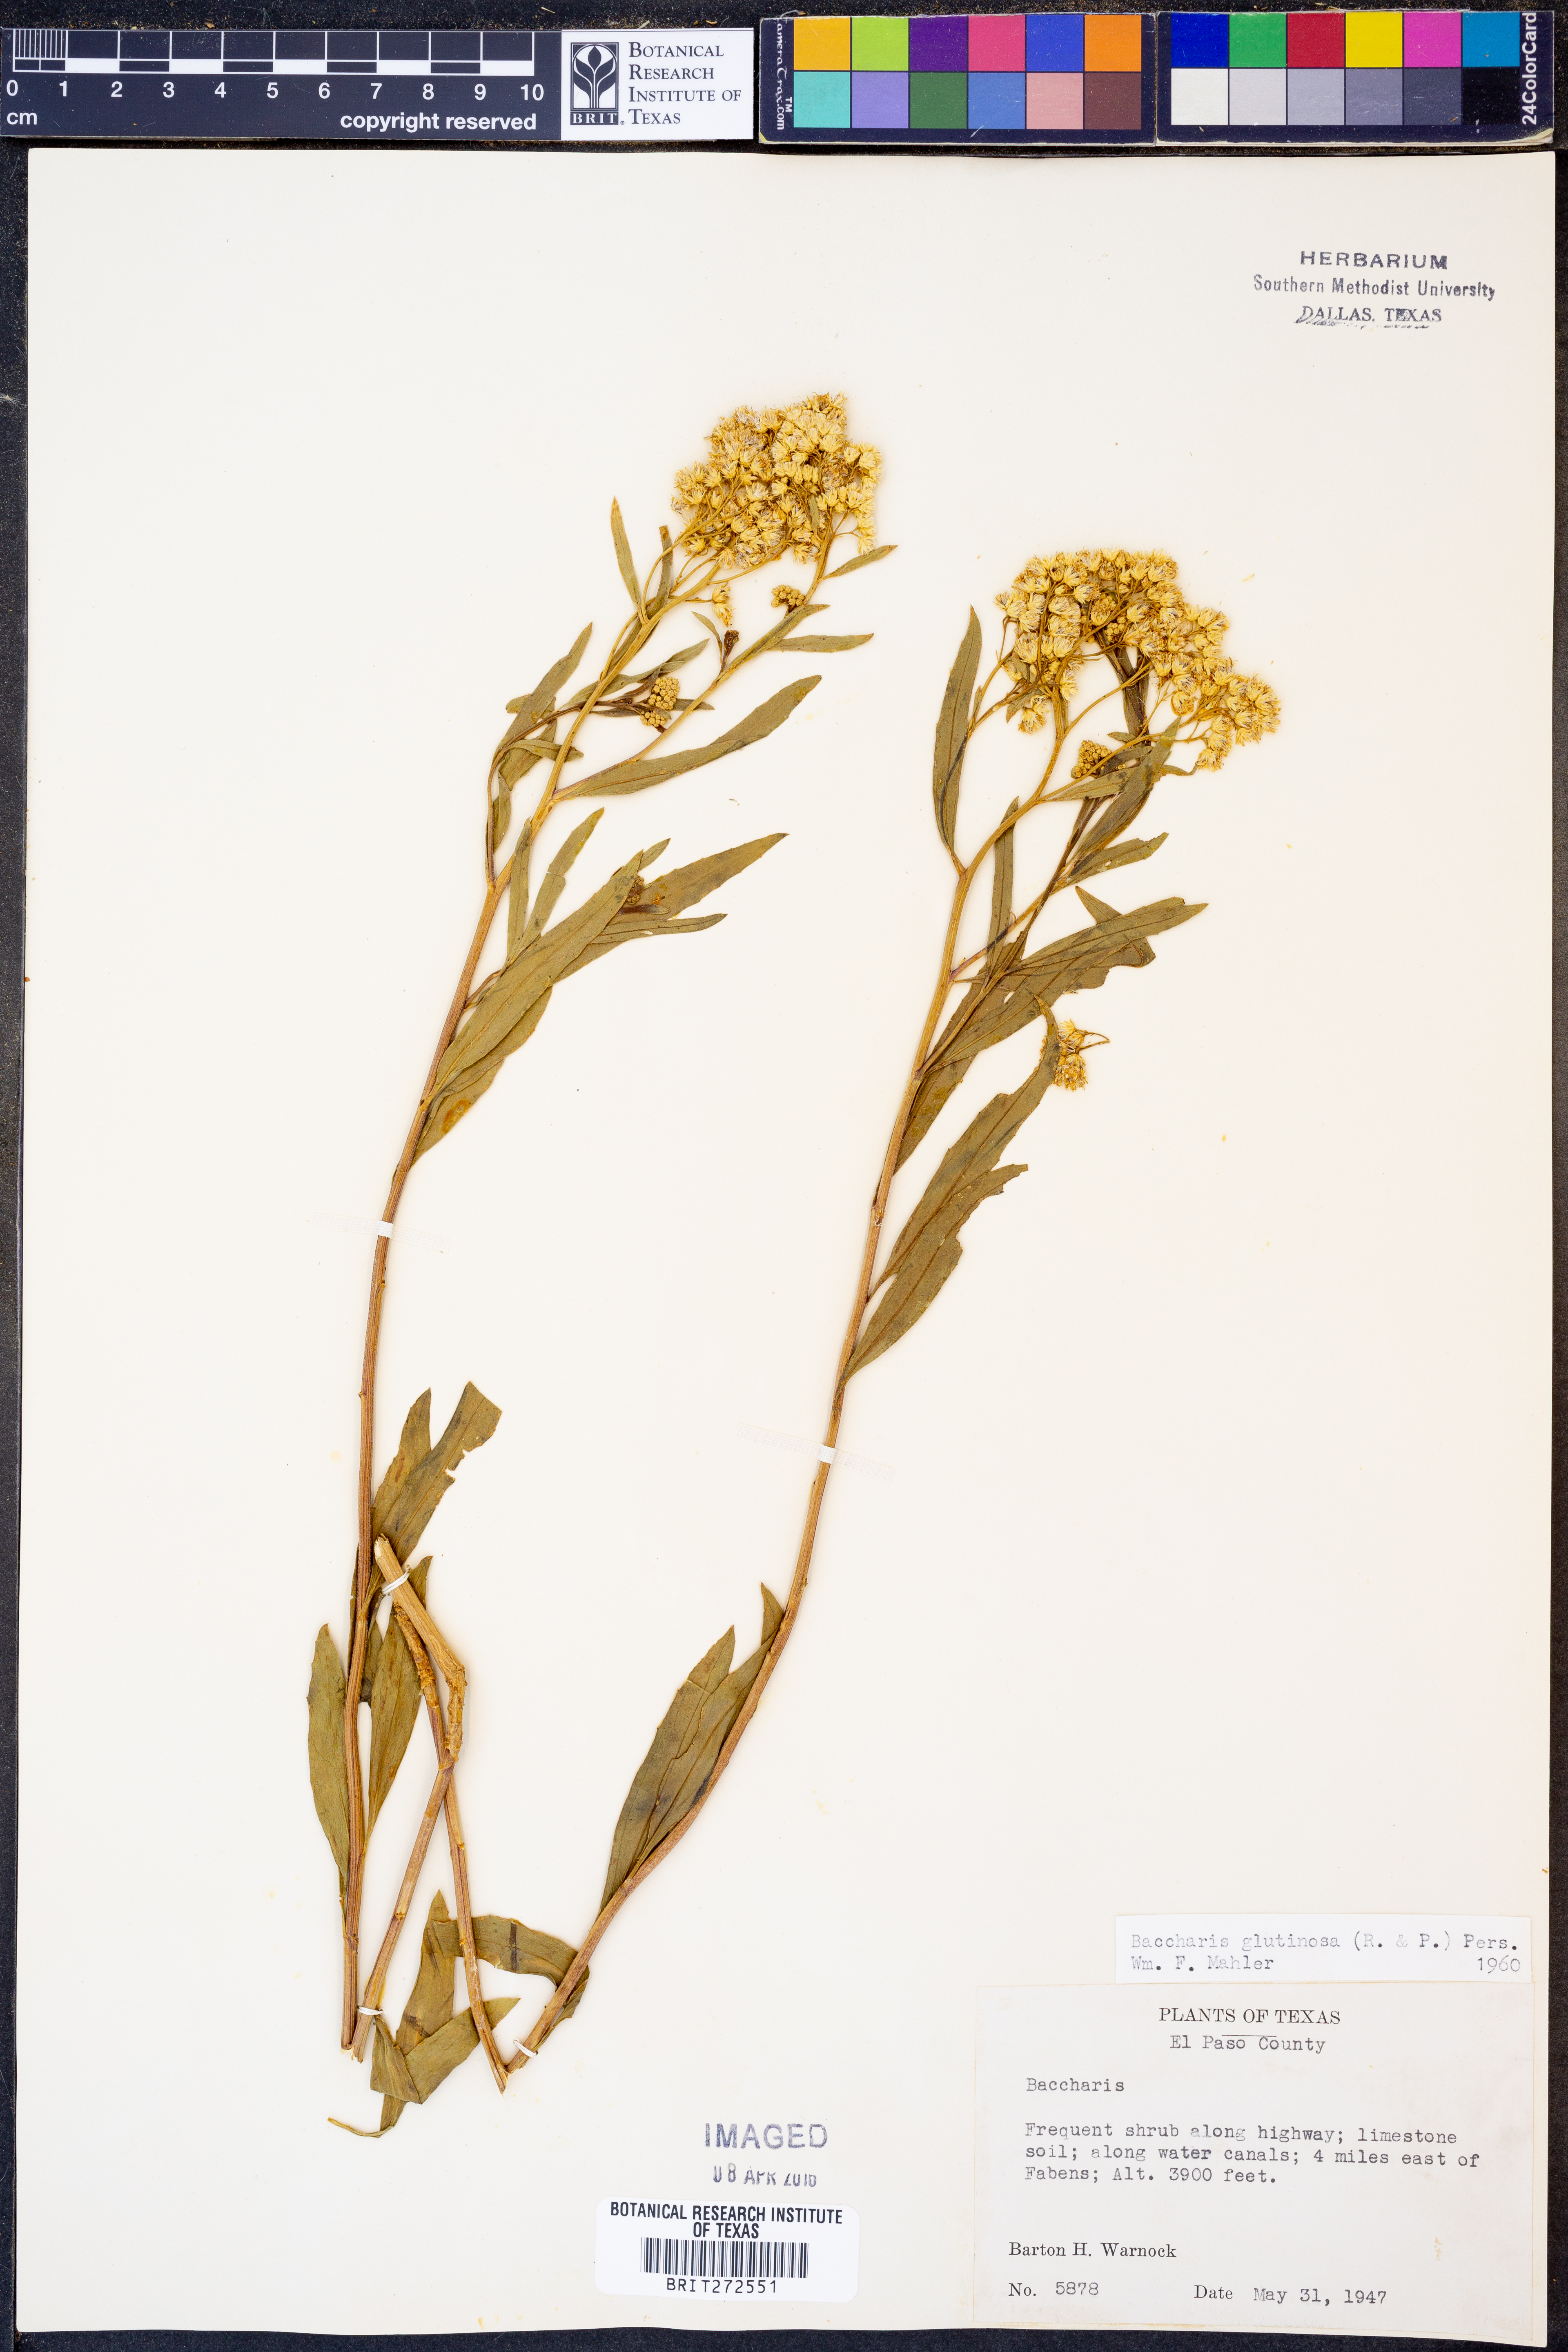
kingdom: Plantae
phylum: Tracheophyta
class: Magnoliopsida
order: Asterales
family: Asteraceae
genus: Baccharis
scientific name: Baccharis glutinosa
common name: Saltmarsh baccharis
